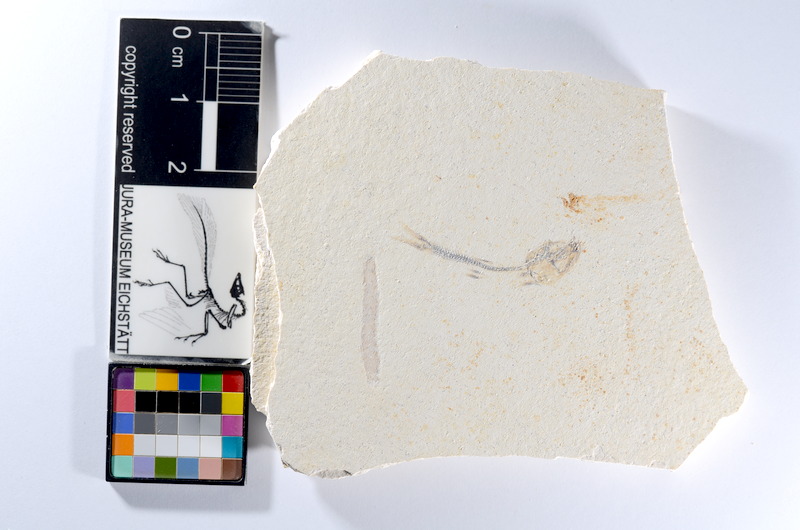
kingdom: Animalia
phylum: Chordata
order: Salmoniformes
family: Orthogonikleithridae
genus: Orthogonikleithrus
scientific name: Orthogonikleithrus hoelli
